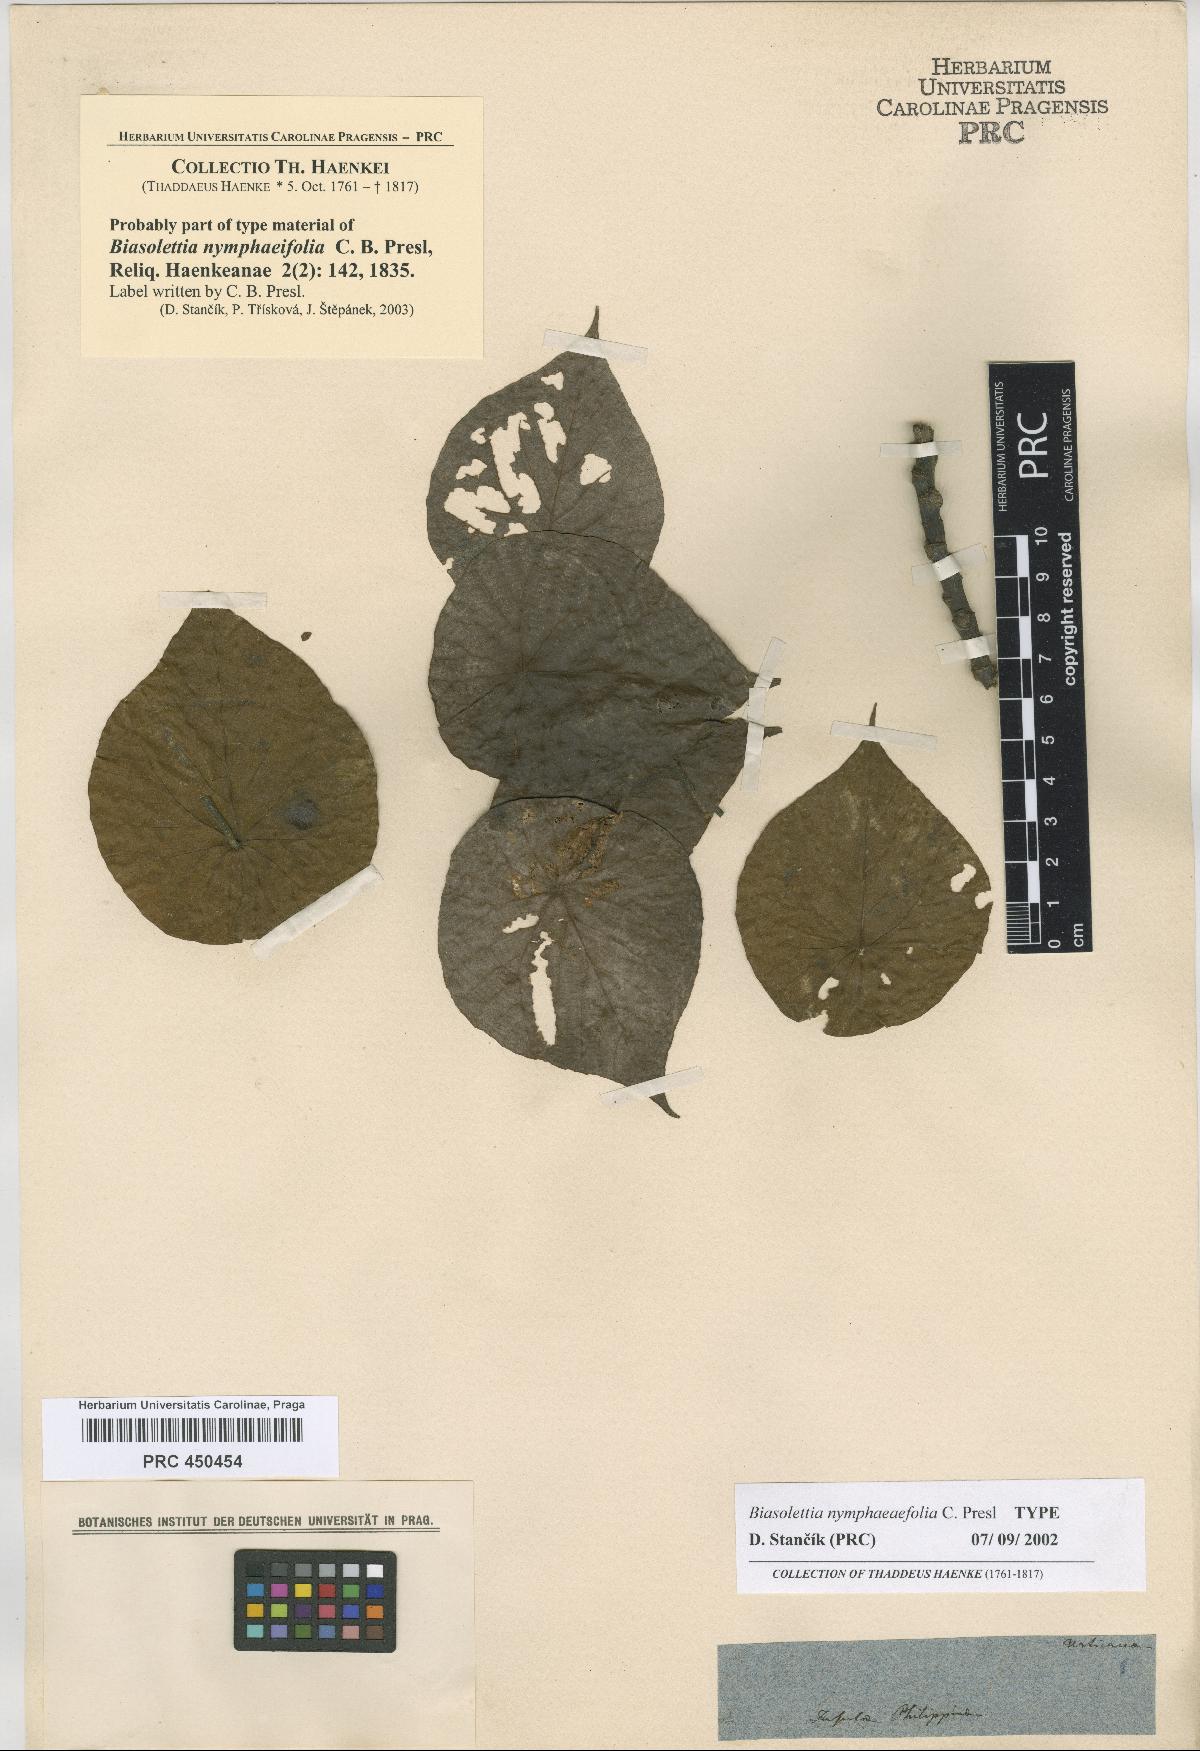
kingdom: Plantae
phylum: Tracheophyta
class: Magnoliopsida
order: Laurales
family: Hernandiaceae
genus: Hernandia
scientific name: Hernandia nymphaeifolia
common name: Sea hearse
